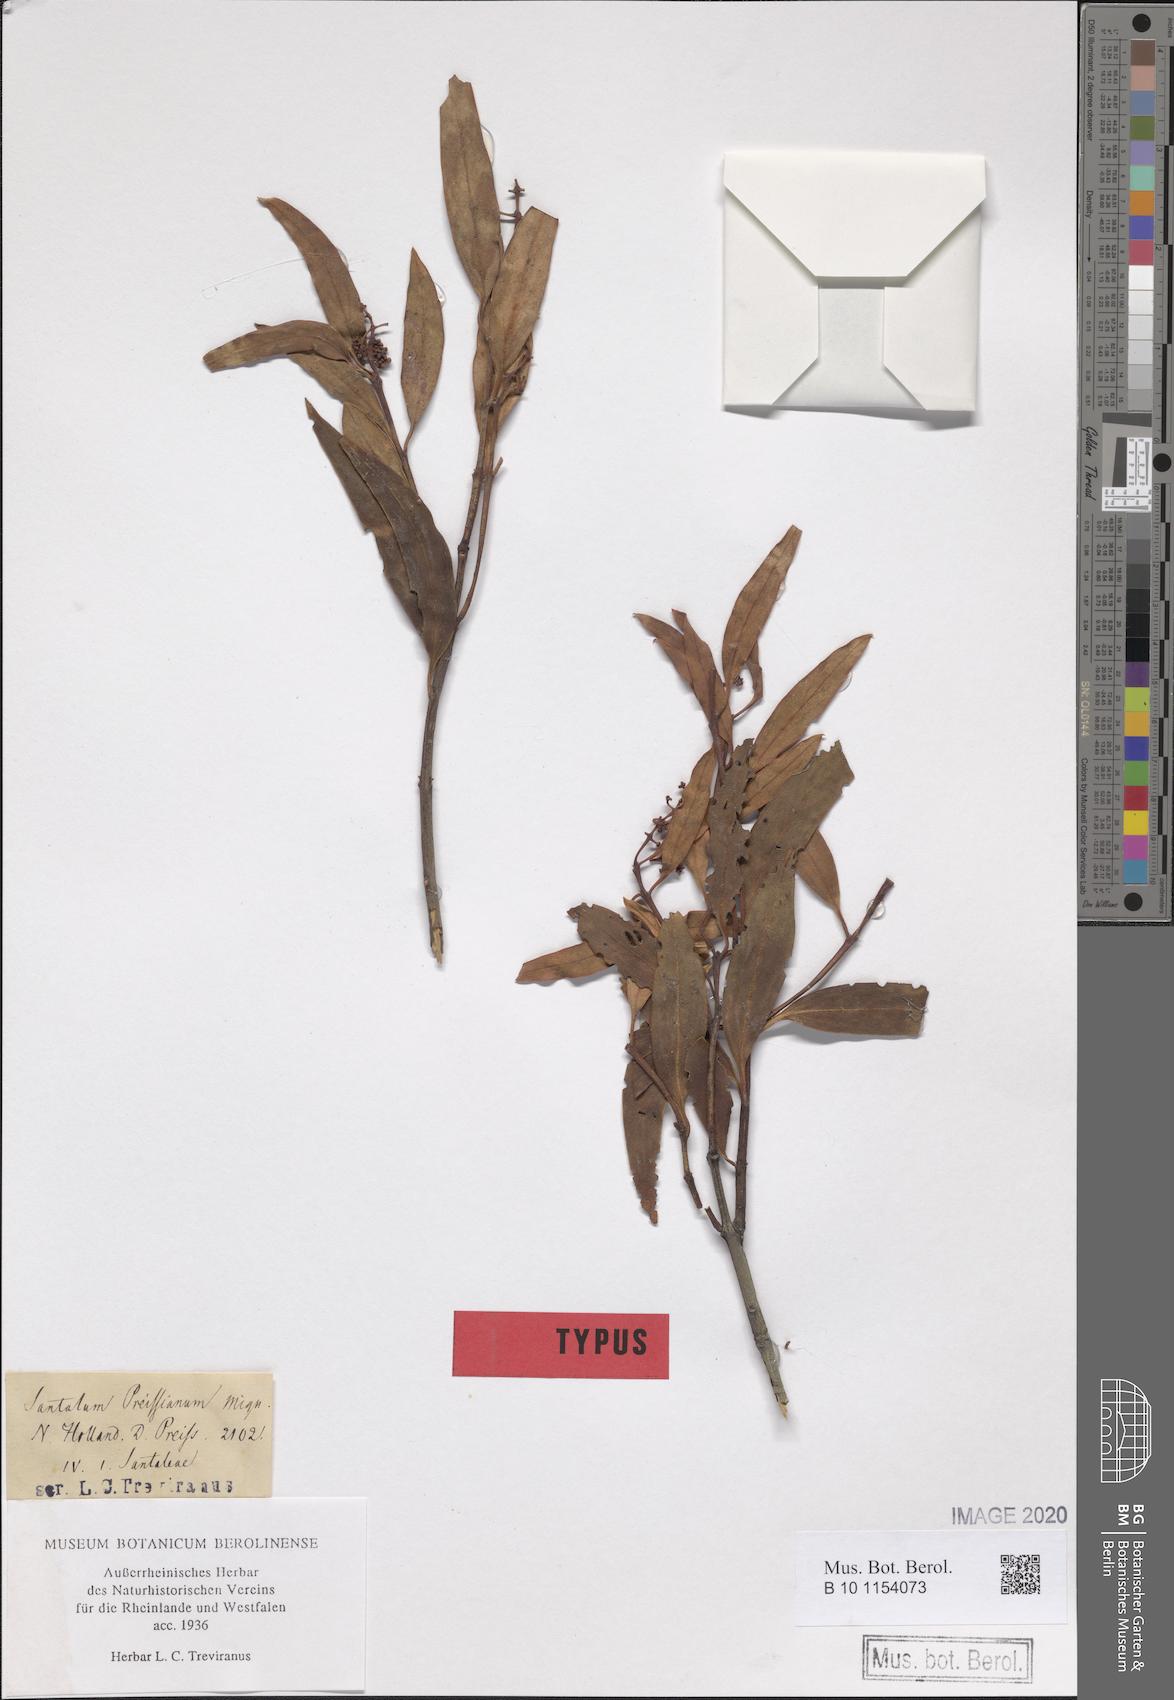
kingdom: Plantae
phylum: Tracheophyta
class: Magnoliopsida
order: Santalales
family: Santalaceae
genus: Santalum
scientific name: Santalum acuminatum
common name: Sweet quandong
